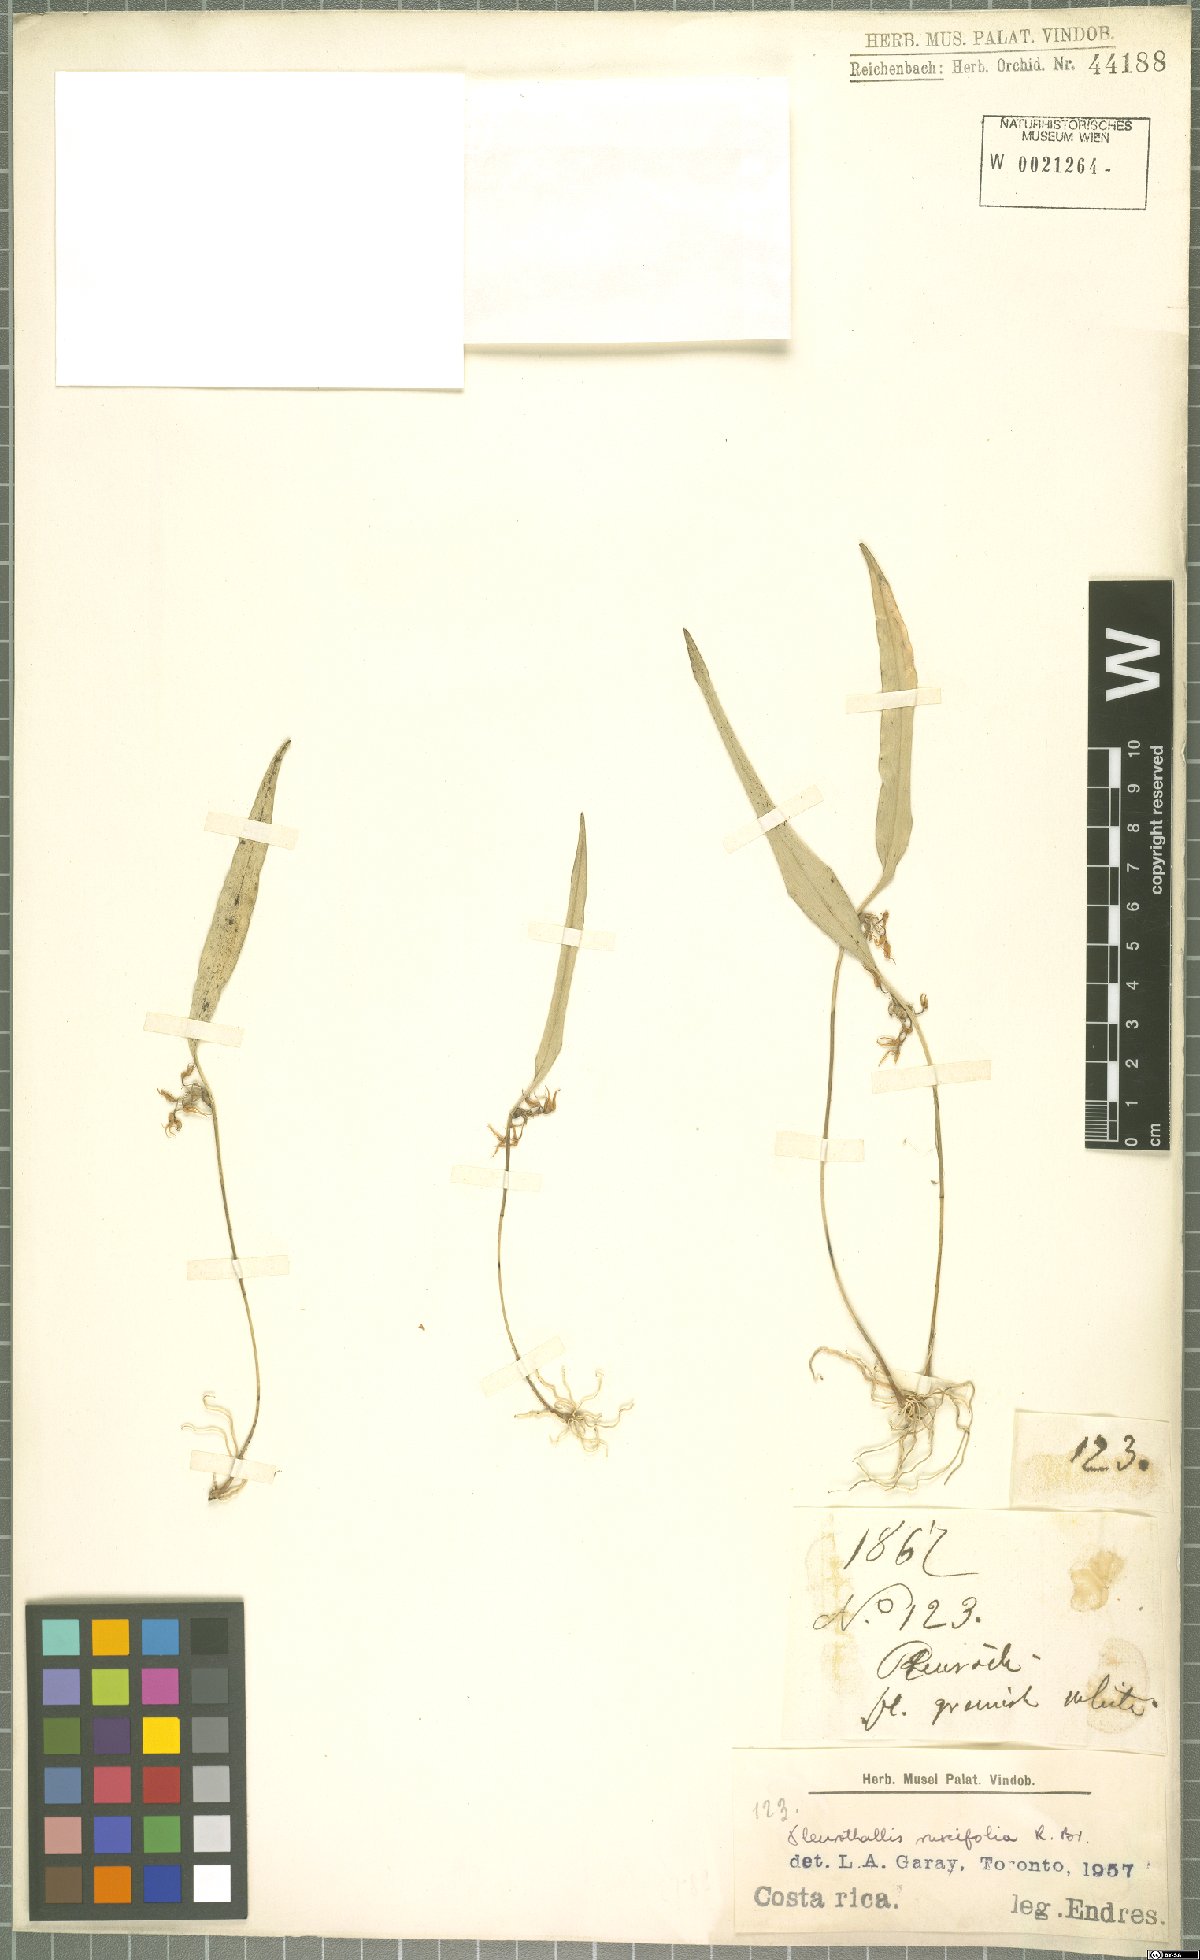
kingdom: Plantae
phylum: Tracheophyta
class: Liliopsida
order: Asparagales
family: Orchidaceae
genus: Pleurothallis
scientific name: Pleurothallis ruscifolia
